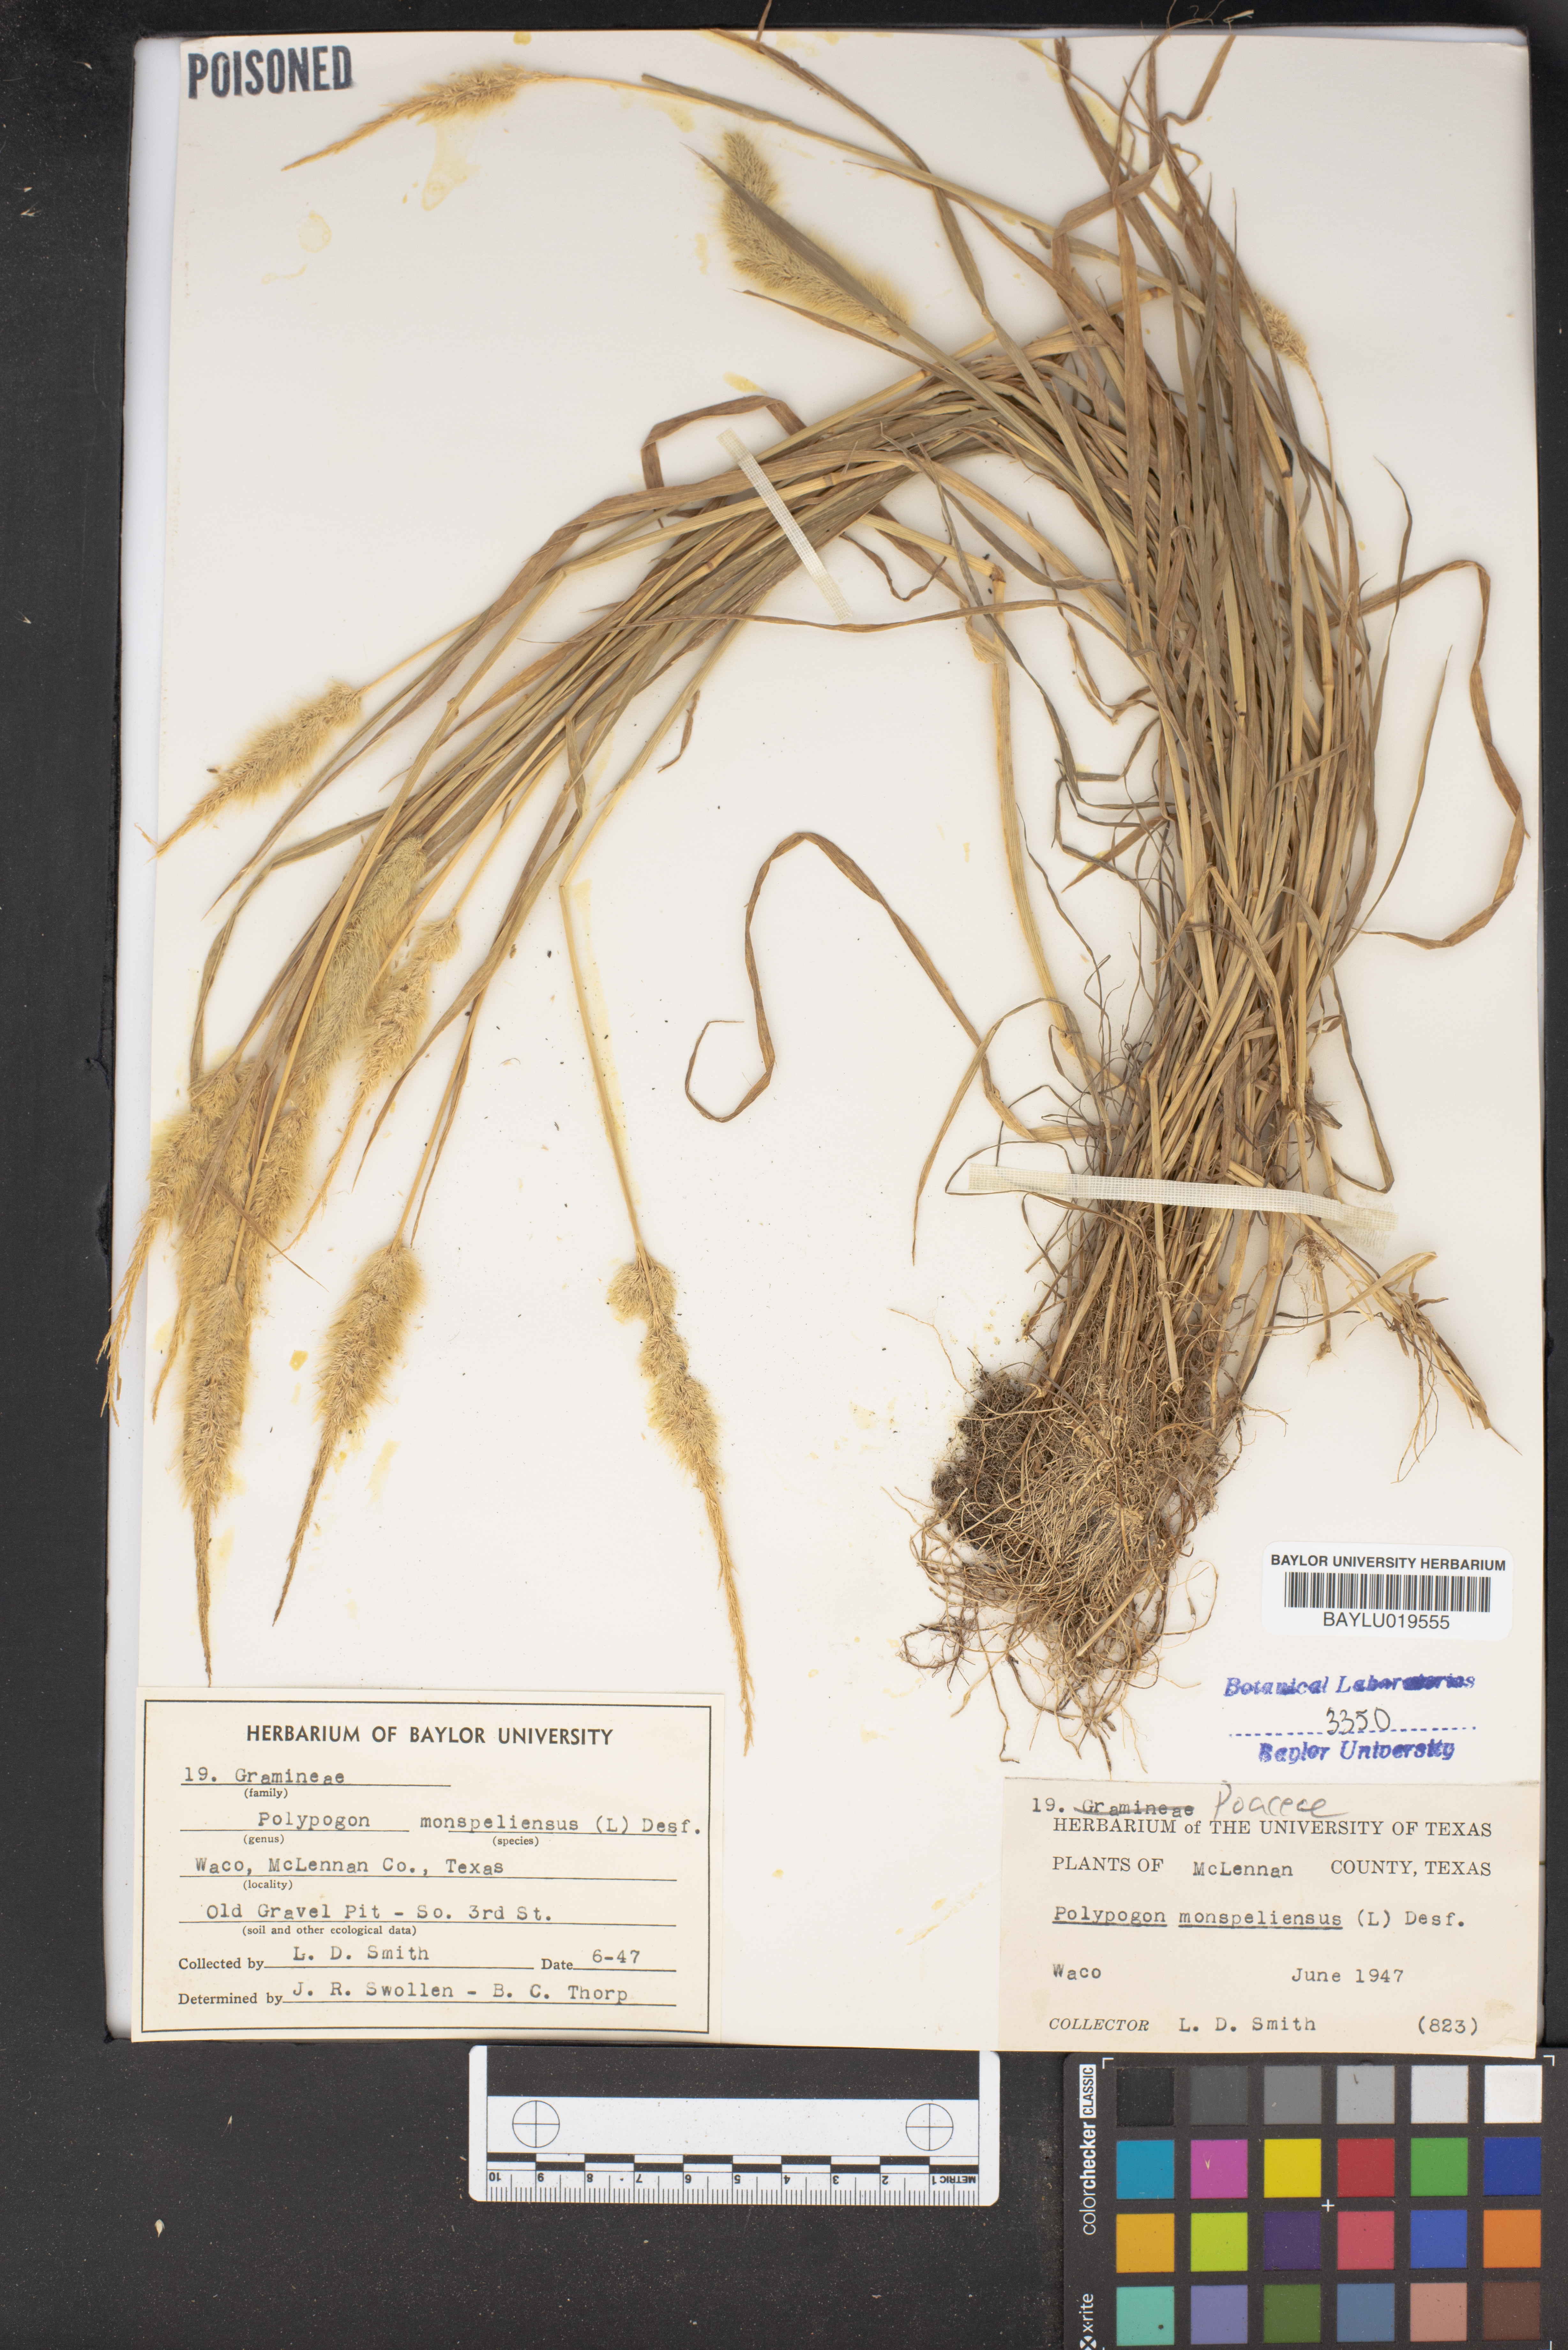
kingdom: Plantae
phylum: Tracheophyta
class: Liliopsida
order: Poales
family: Poaceae
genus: Polypogon
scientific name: Polypogon monspeliensis
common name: Annual rabbitsfoot grass
